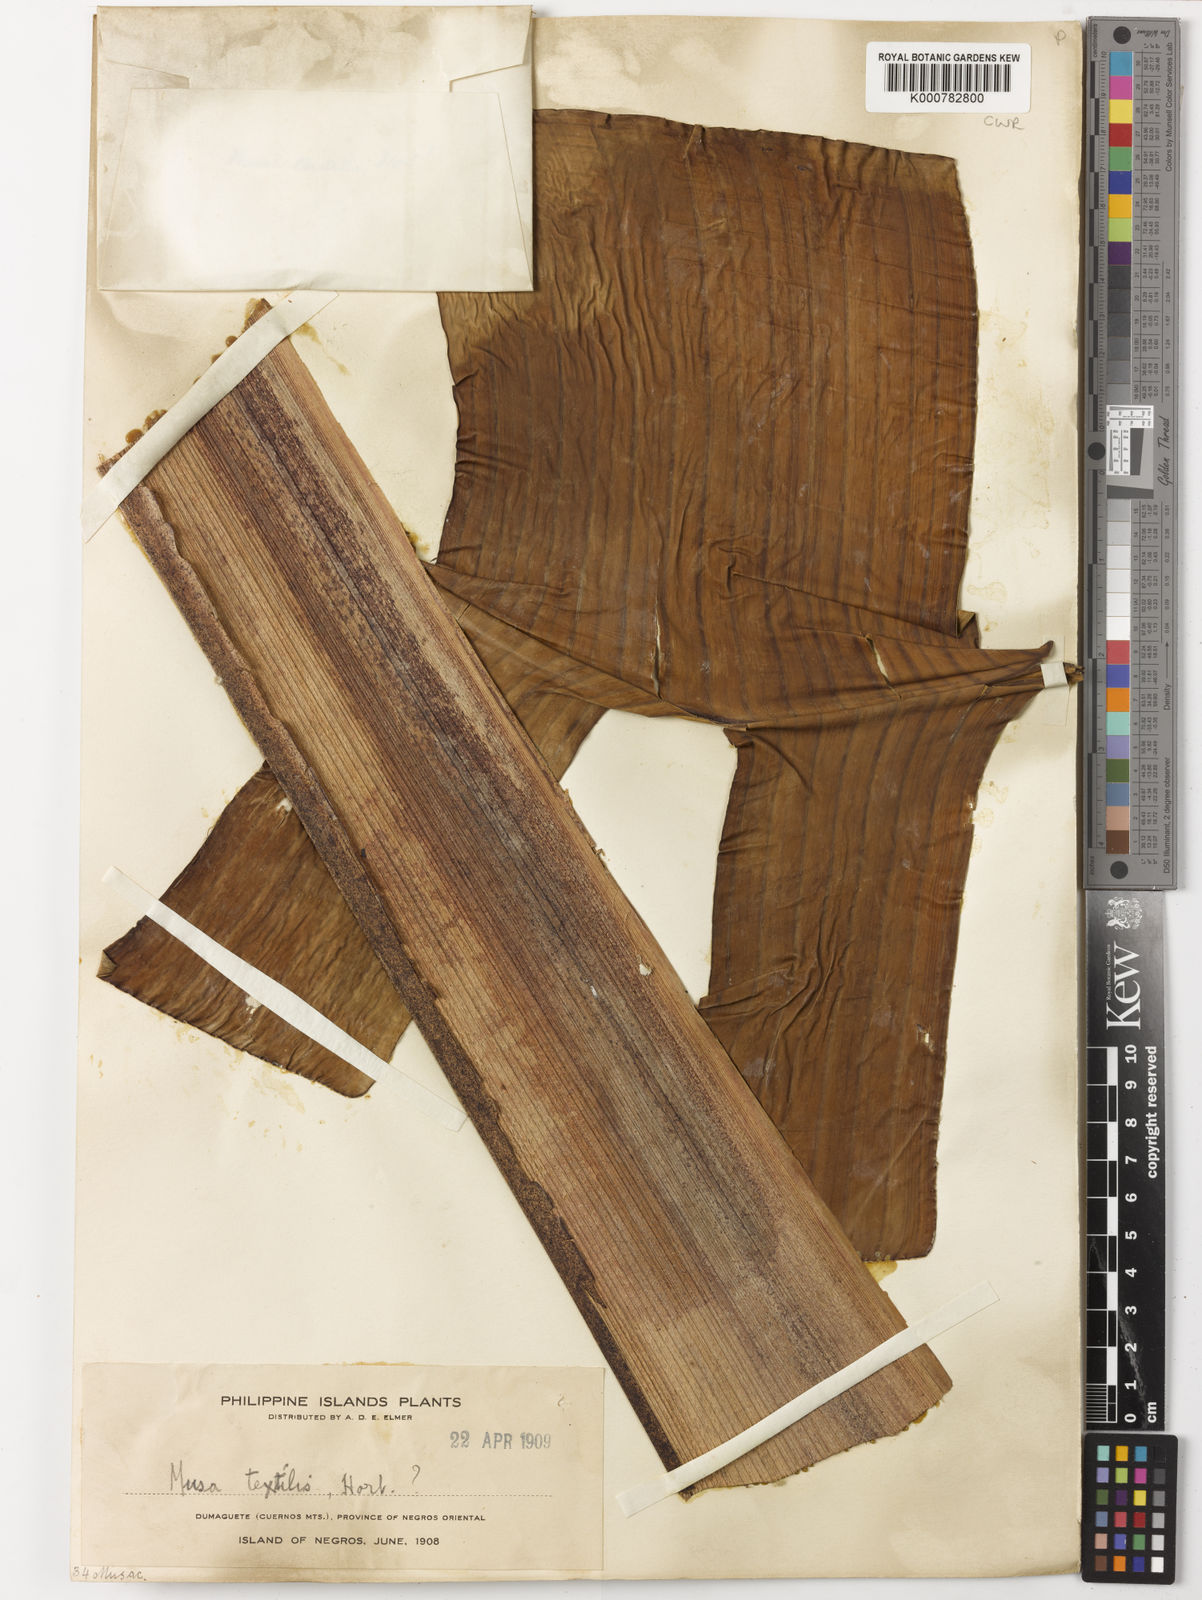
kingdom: Plantae
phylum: Tracheophyta
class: Liliopsida
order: Zingiberales
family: Musaceae
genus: Musa
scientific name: Musa
